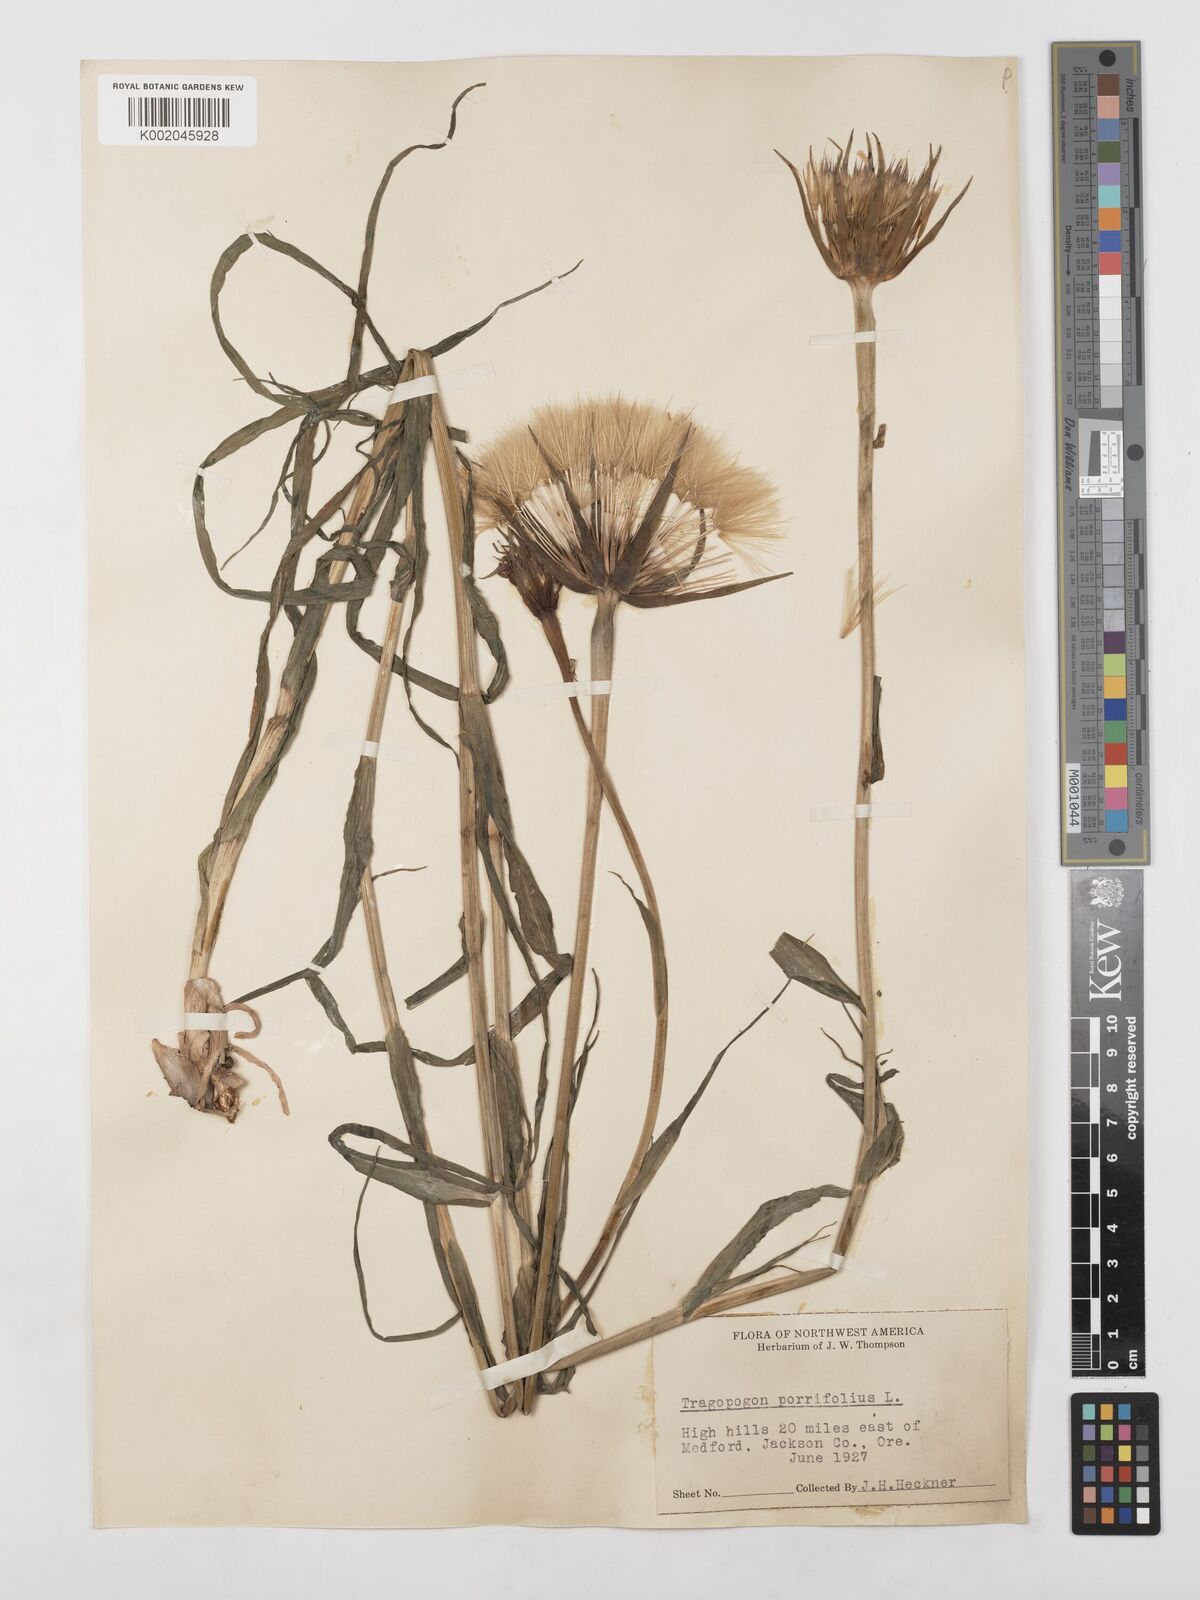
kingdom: Plantae
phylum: Tracheophyta
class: Magnoliopsida
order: Asterales
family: Asteraceae
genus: Tragopogon
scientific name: Tragopogon porrifolius
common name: Salsify
